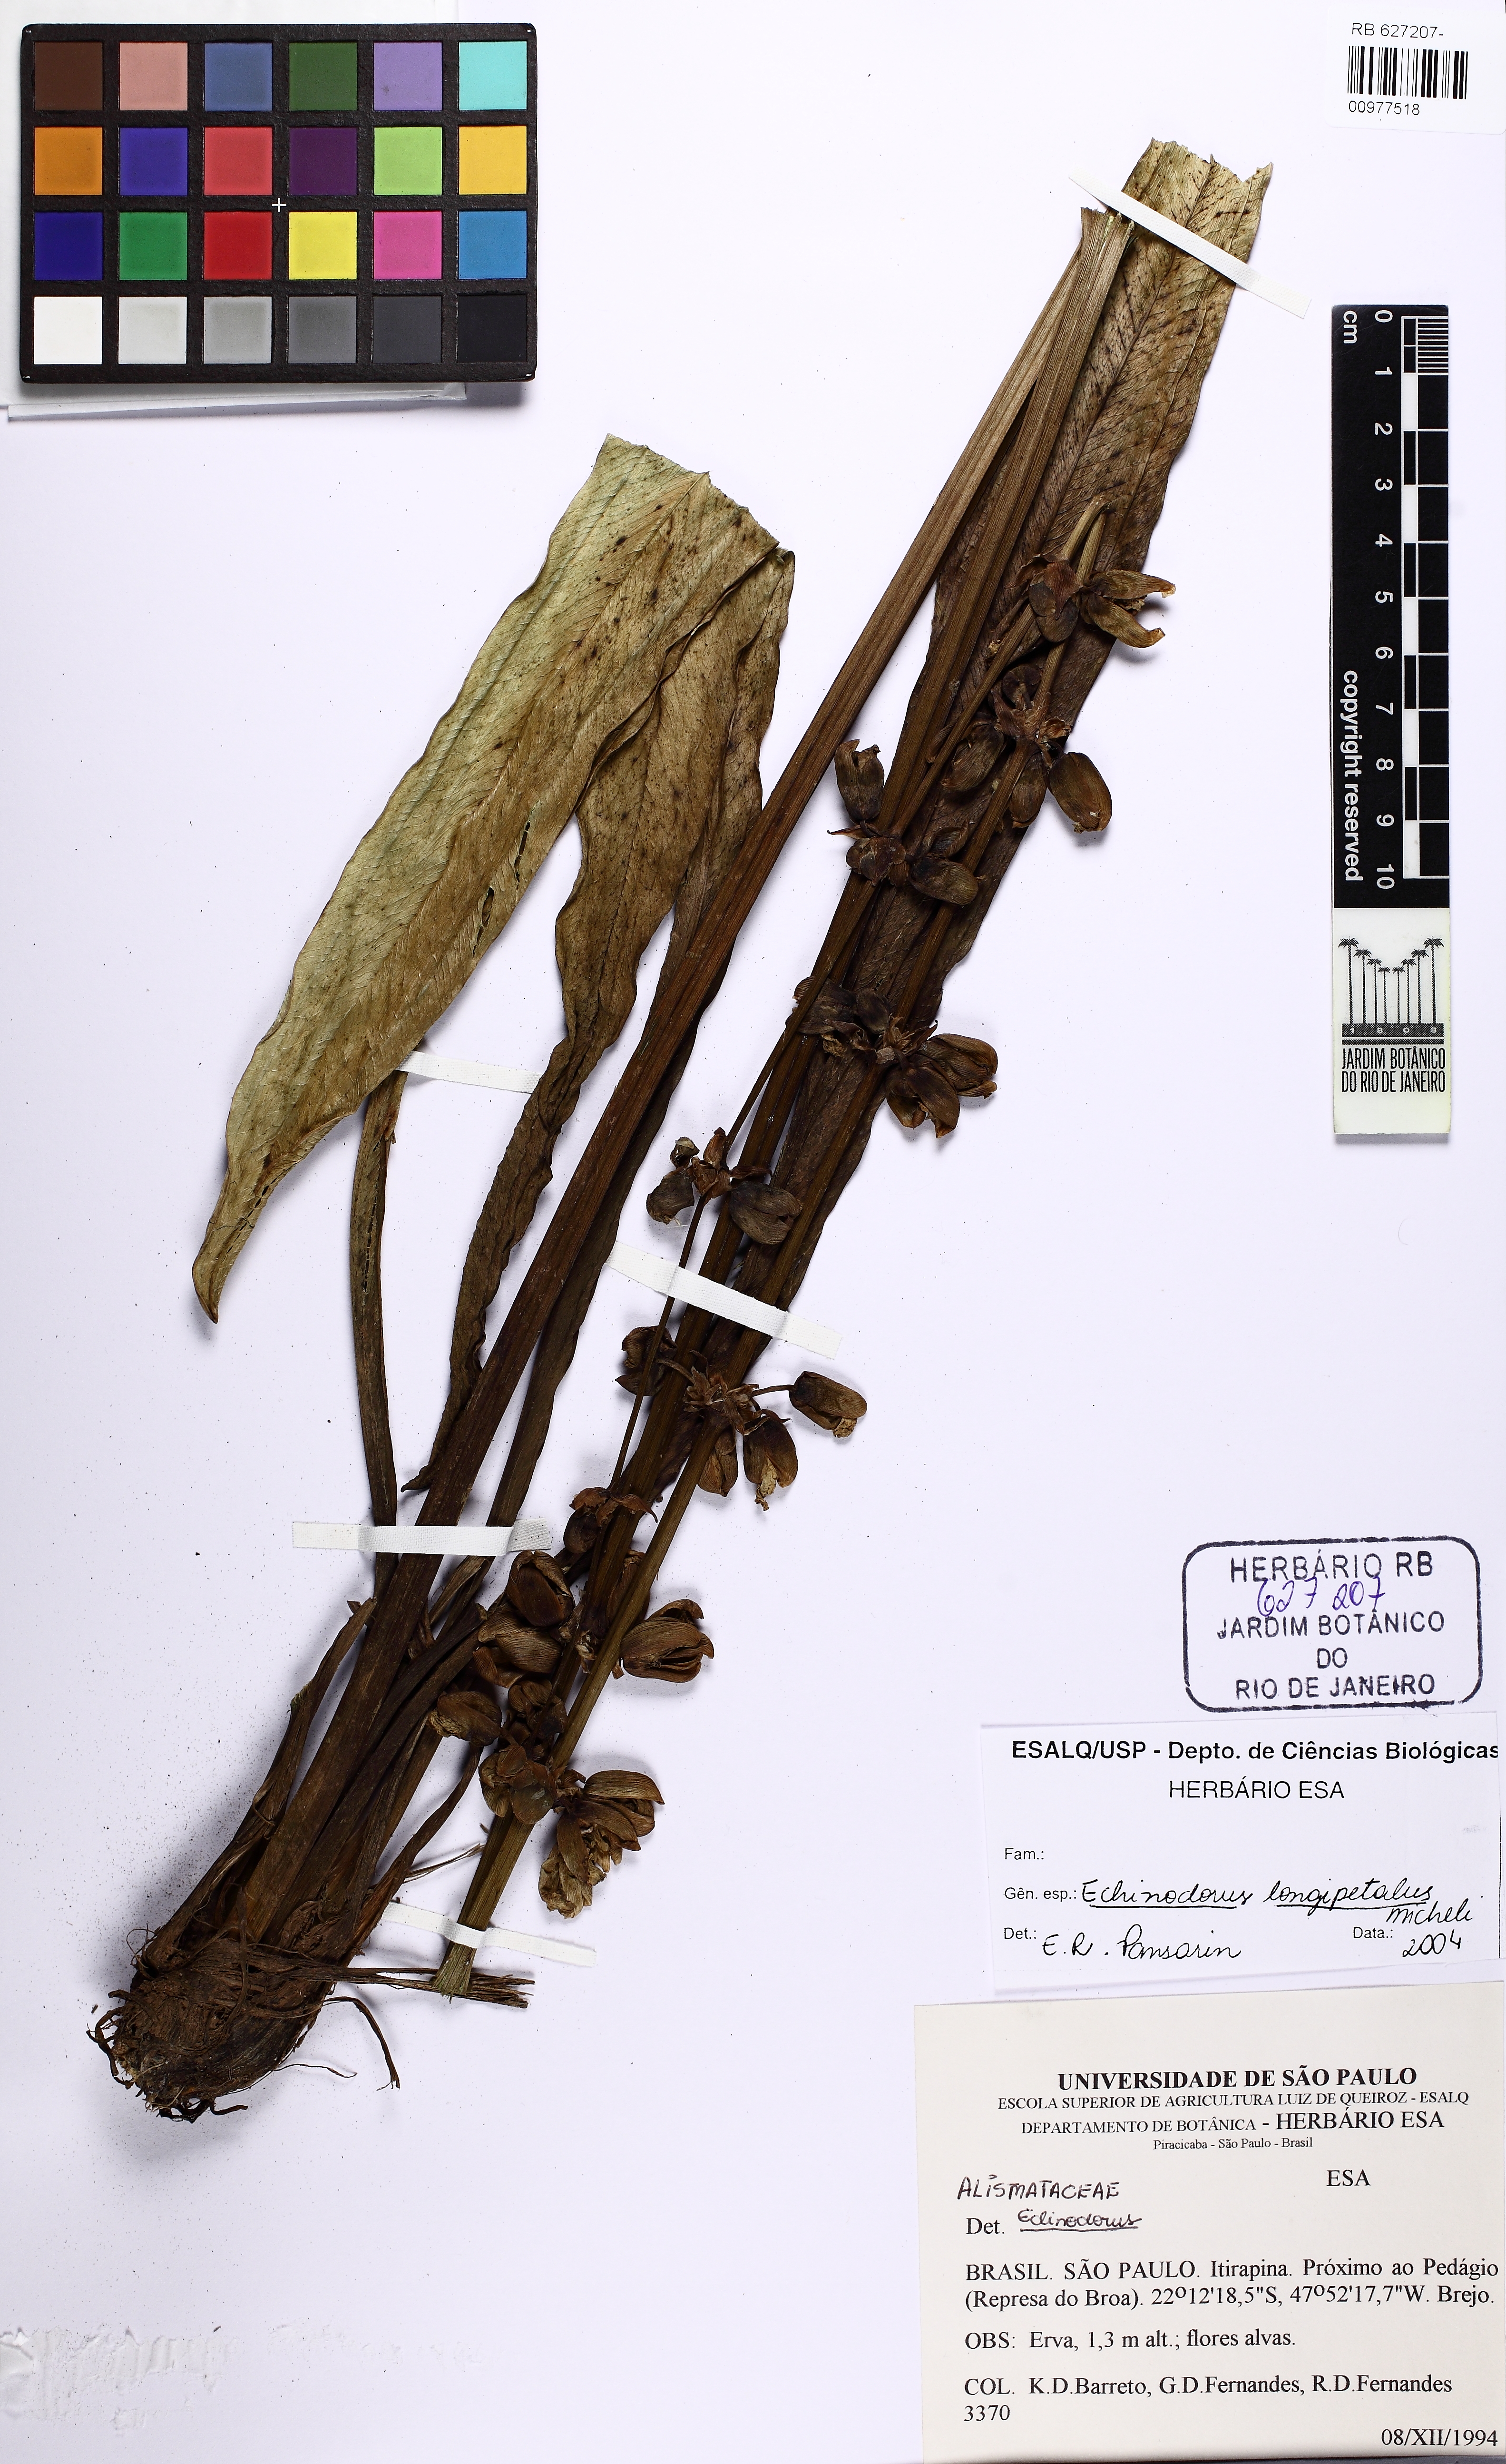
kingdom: Plantae
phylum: Tracheophyta
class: Liliopsida
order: Alismatales
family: Alismataceae
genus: Aquarius
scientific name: Aquarius longipetalus
